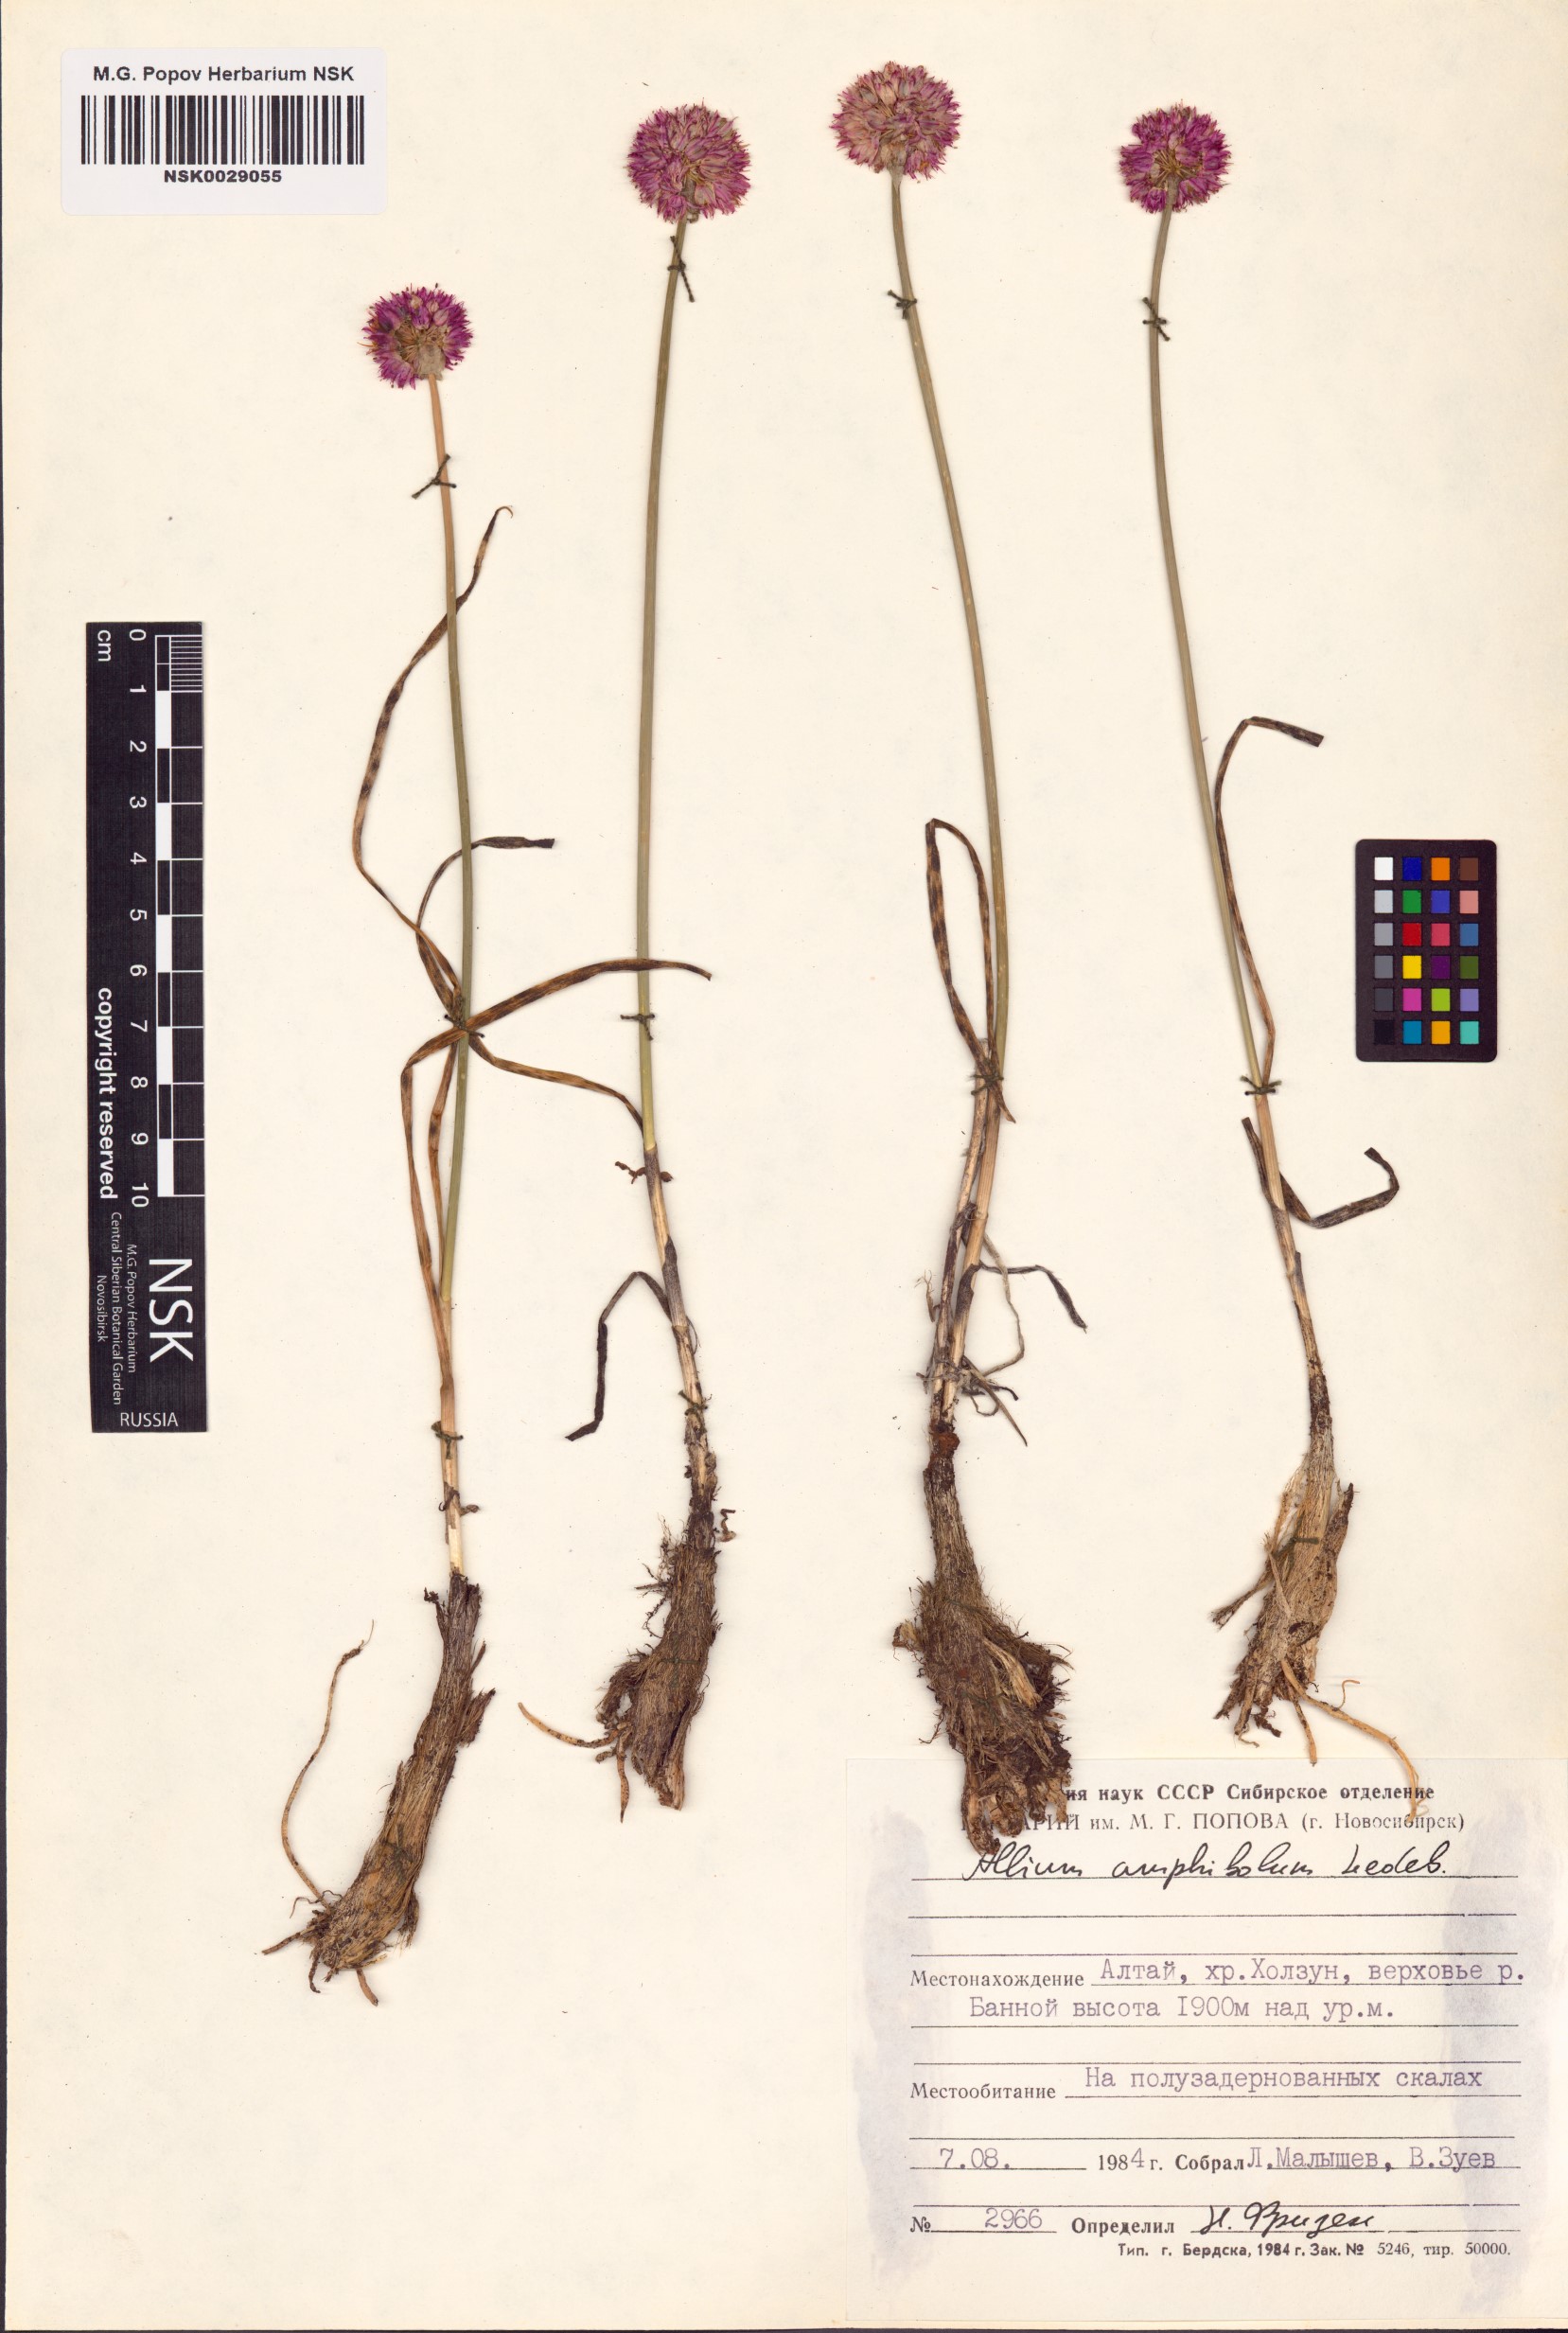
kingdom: Plantae
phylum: Tracheophyta
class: Liliopsida
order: Asparagales
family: Amaryllidaceae
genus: Allium
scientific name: Allium amphibolum
